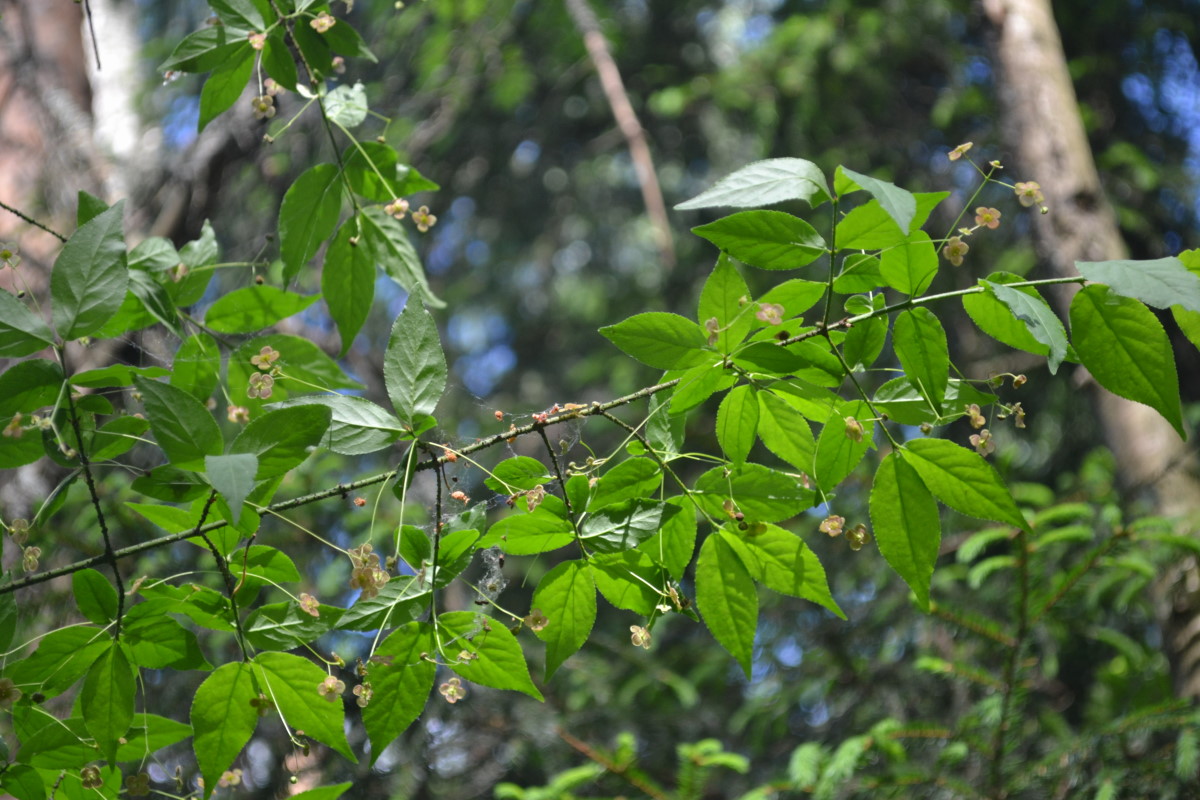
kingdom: Plantae
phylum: Tracheophyta
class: Magnoliopsida
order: Celastrales
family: Celastraceae
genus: Euonymus
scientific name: Euonymus verrucosus
